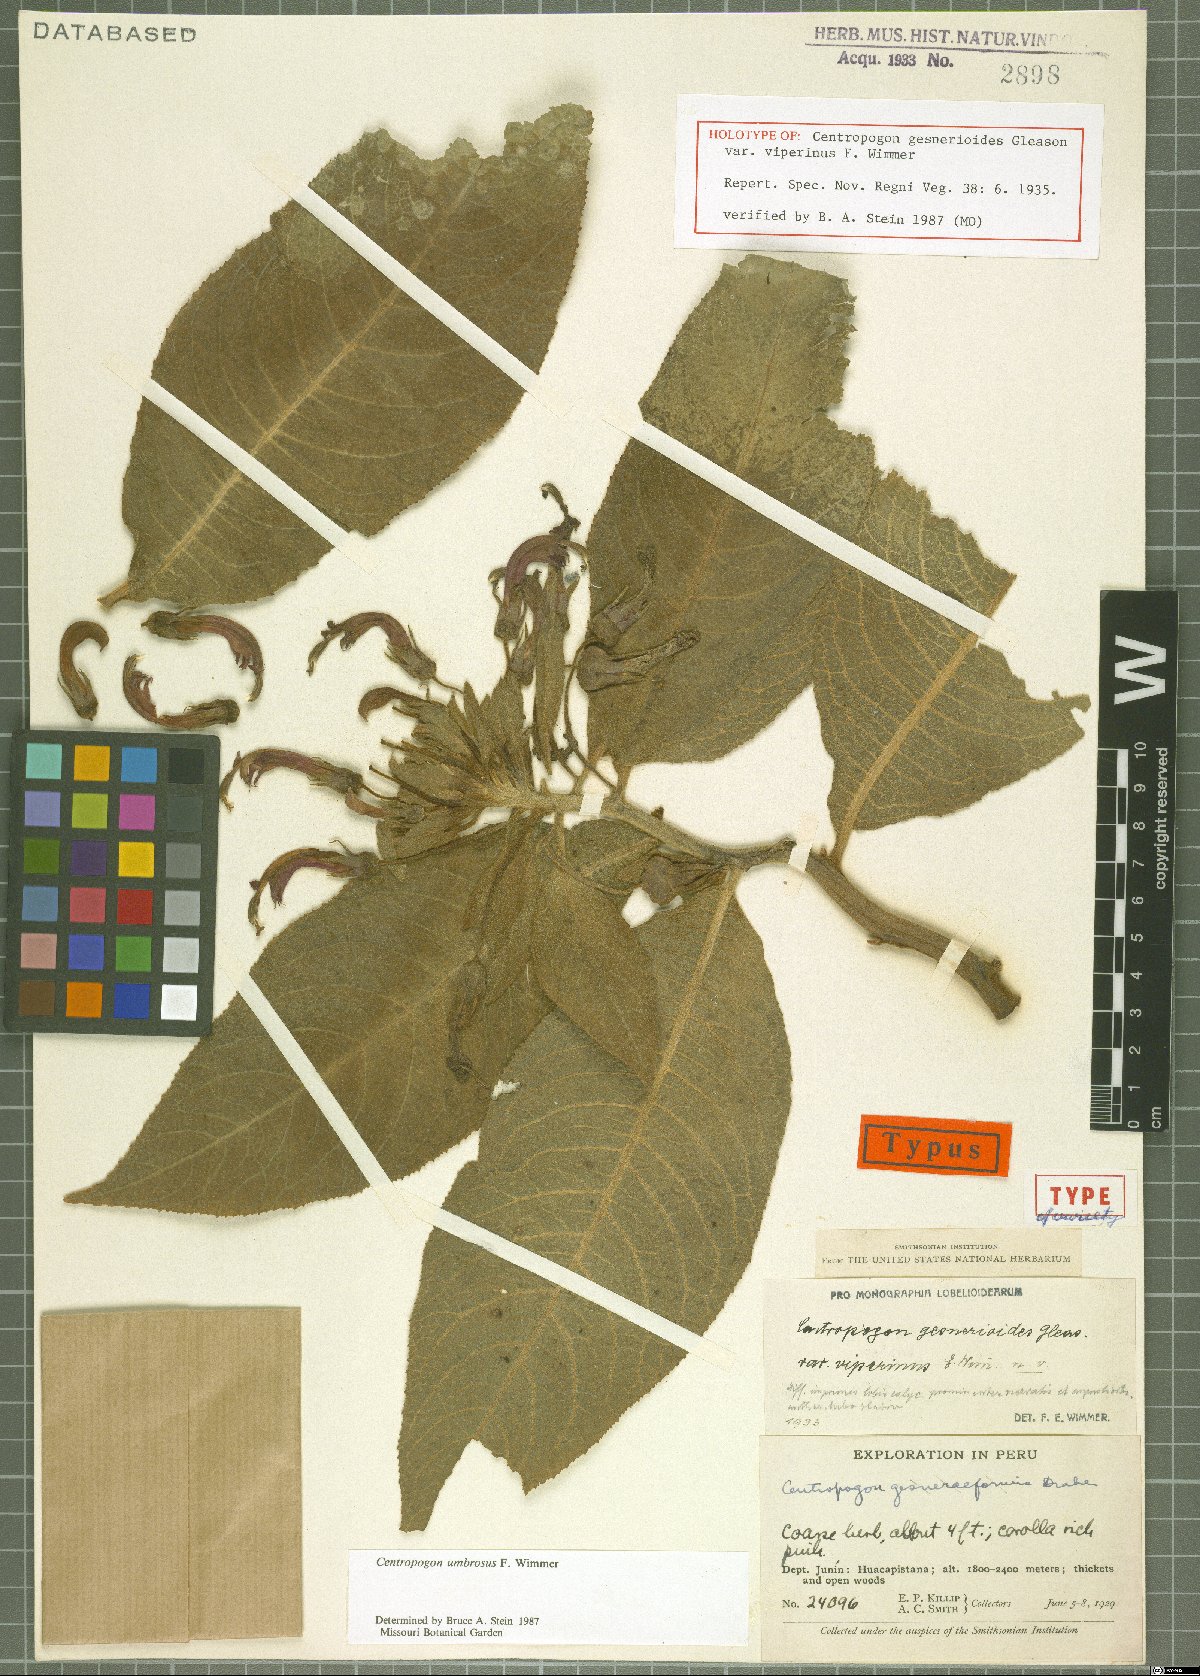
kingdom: Plantae
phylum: Tracheophyta
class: Magnoliopsida
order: Asterales
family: Campanulaceae
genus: Centropogon
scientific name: Centropogon umbrosus
